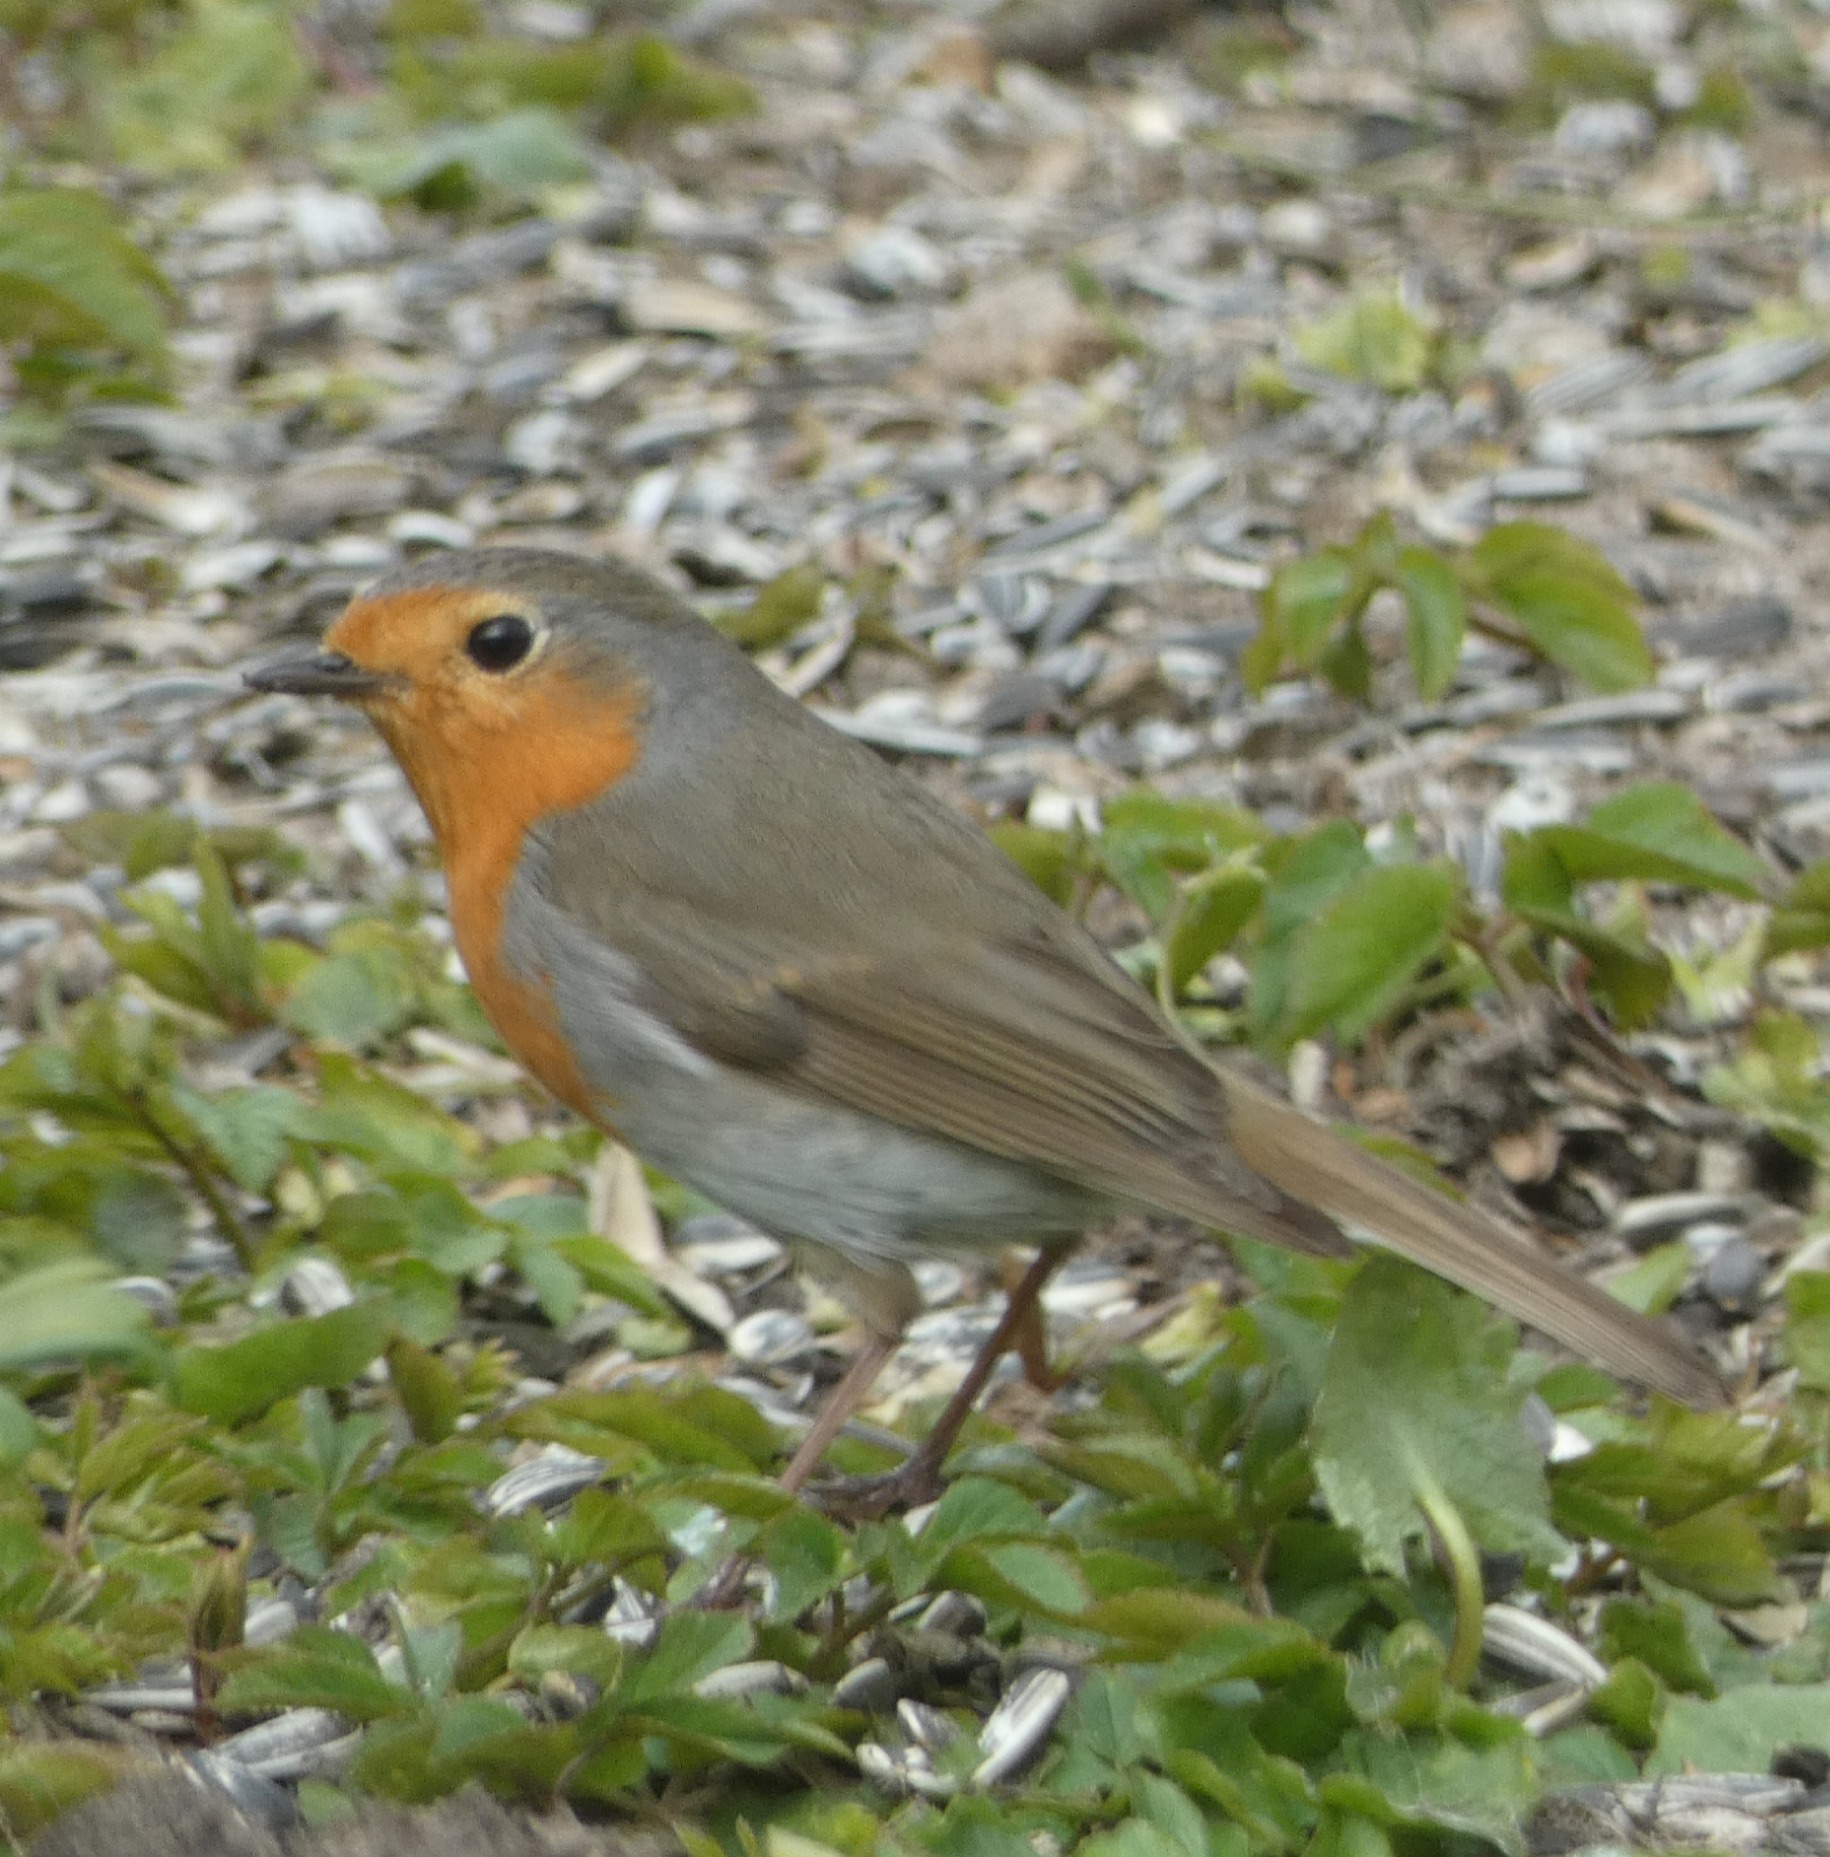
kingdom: Animalia
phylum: Chordata
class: Aves
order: Passeriformes
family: Muscicapidae
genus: Erithacus
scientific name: Erithacus rubecula
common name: Rødhals/rødkælk
